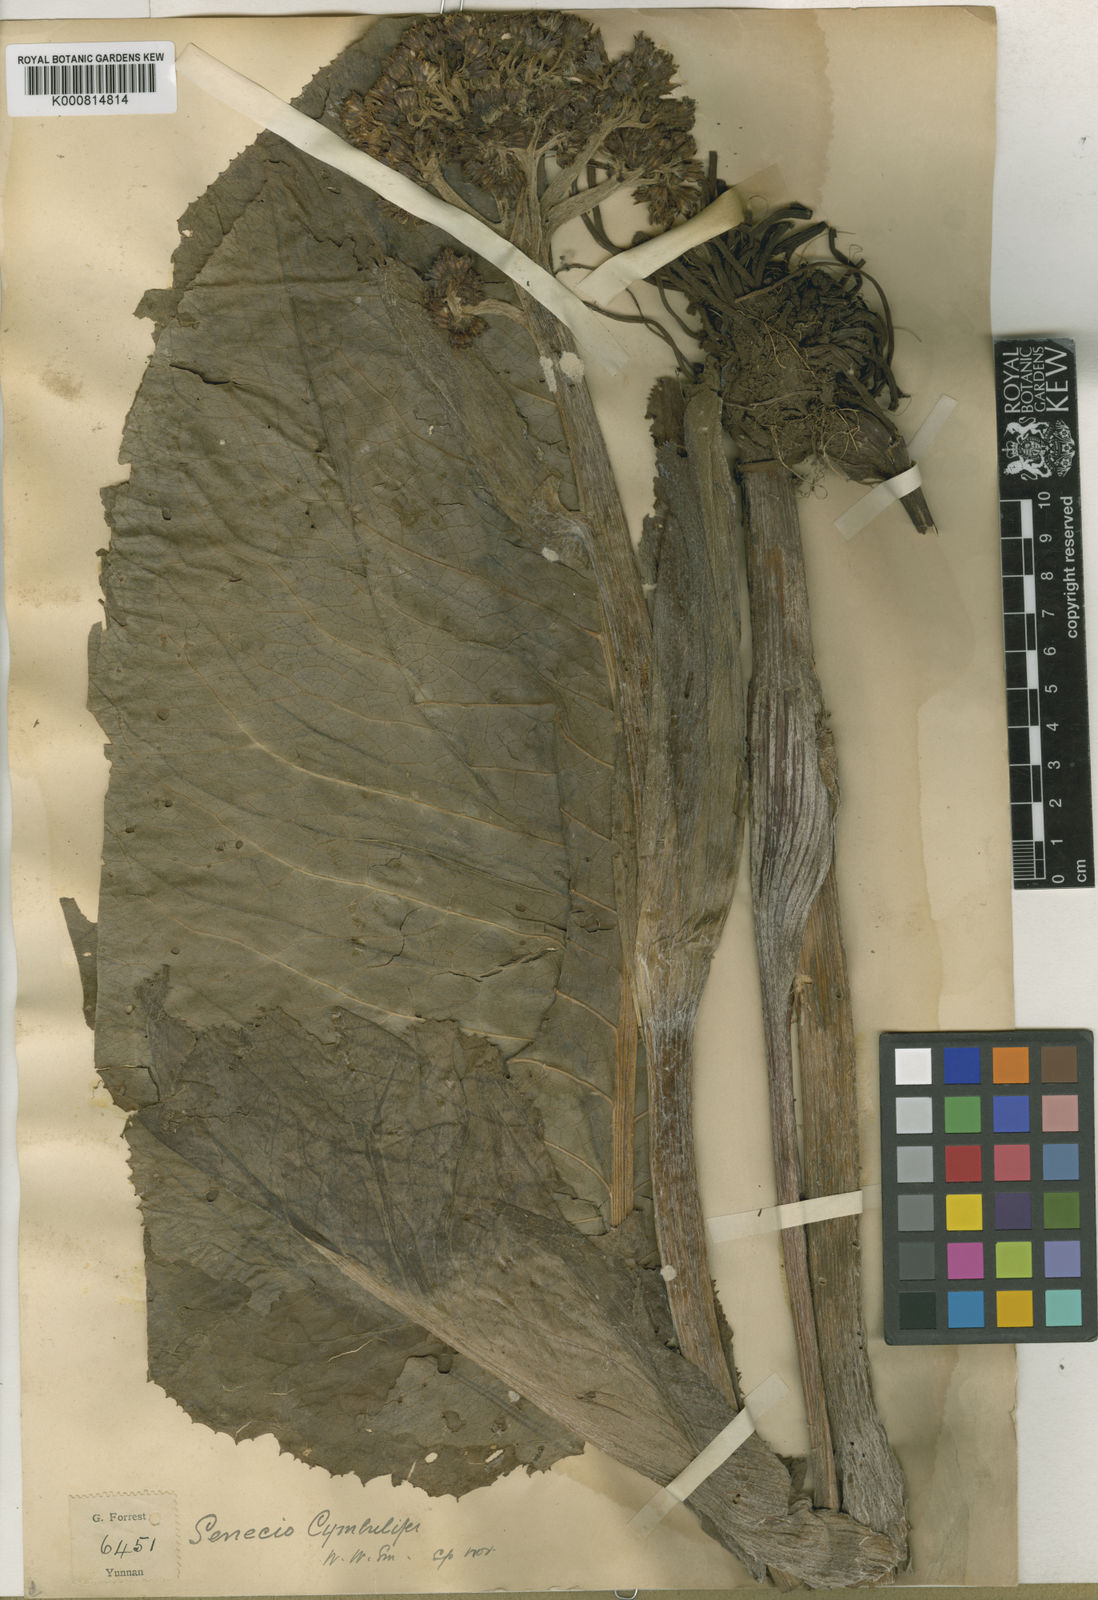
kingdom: Plantae
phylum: Tracheophyta
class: Magnoliopsida
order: Asterales
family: Asteraceae
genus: Ligularia
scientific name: Ligularia cymbulifera
